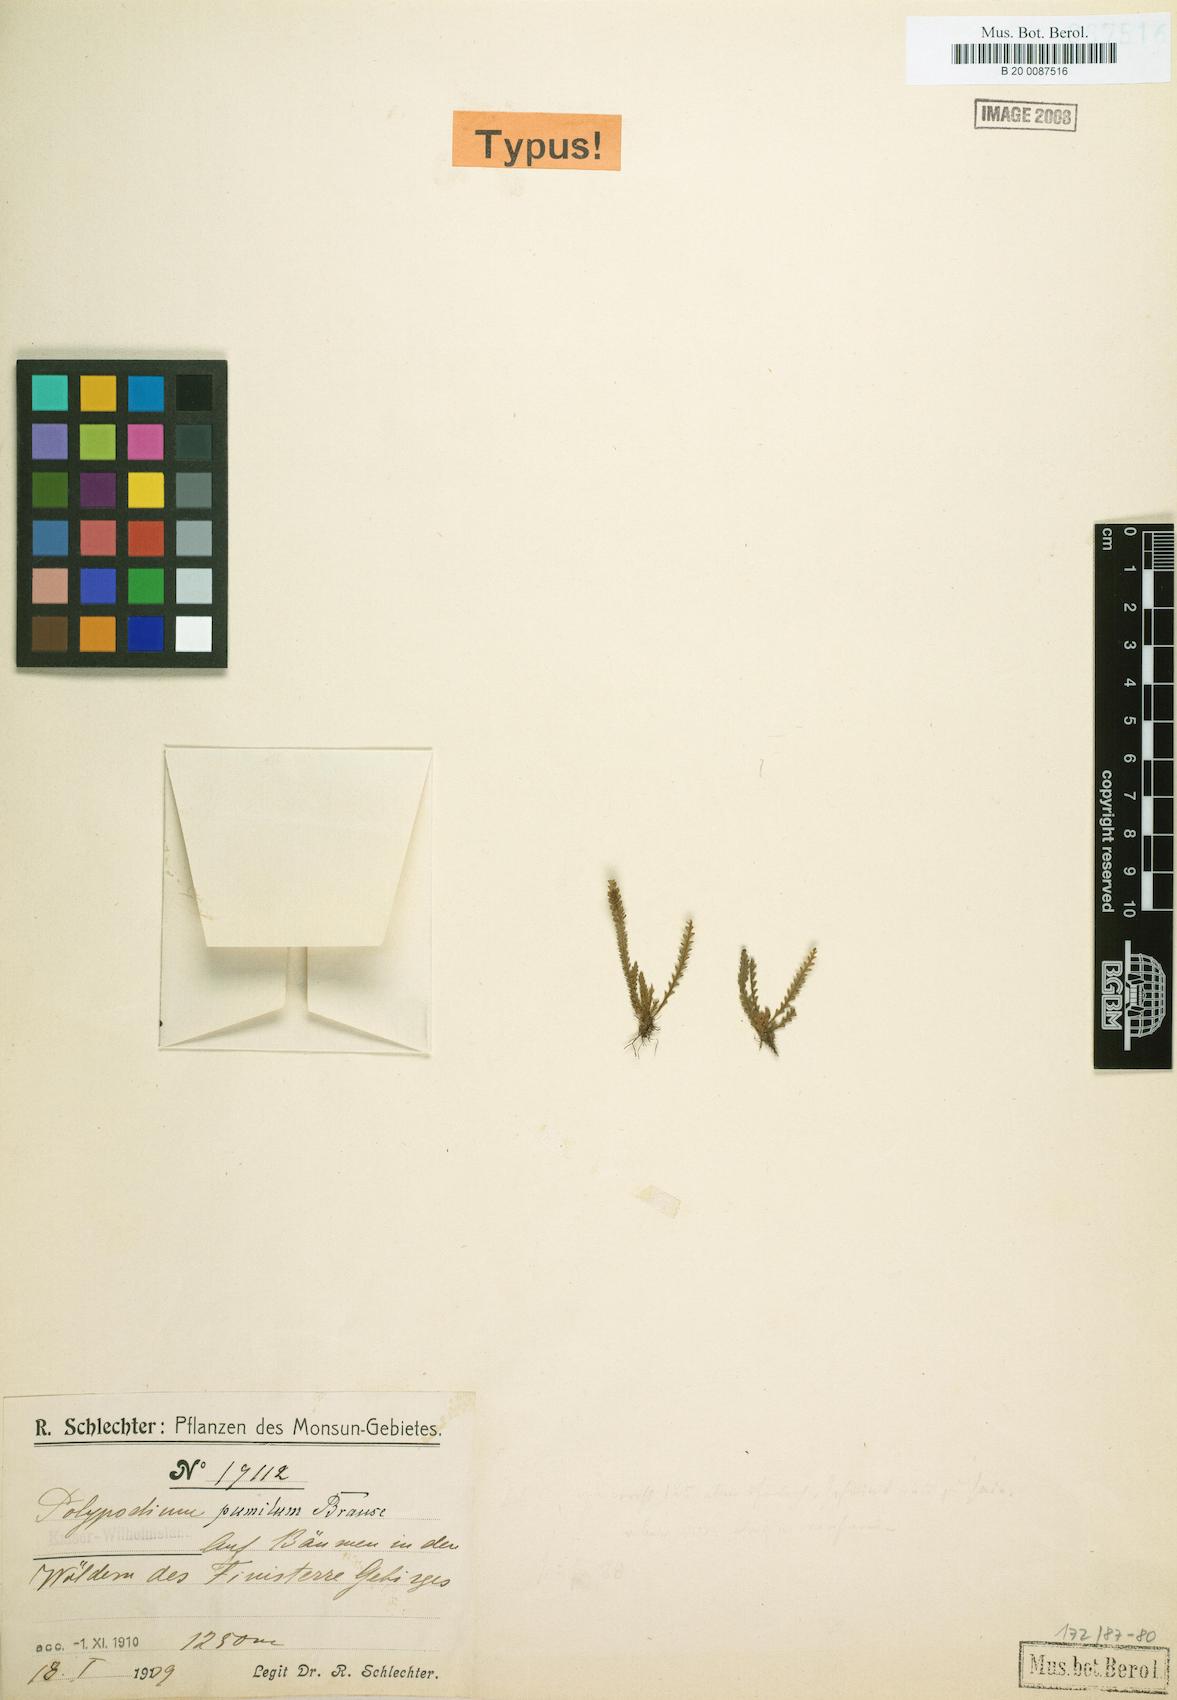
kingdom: Plantae
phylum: Tracheophyta
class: Polypodiopsida
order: Polypodiales
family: Polypodiaceae
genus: Oreogrammitis
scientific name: Oreogrammitis setulifera
